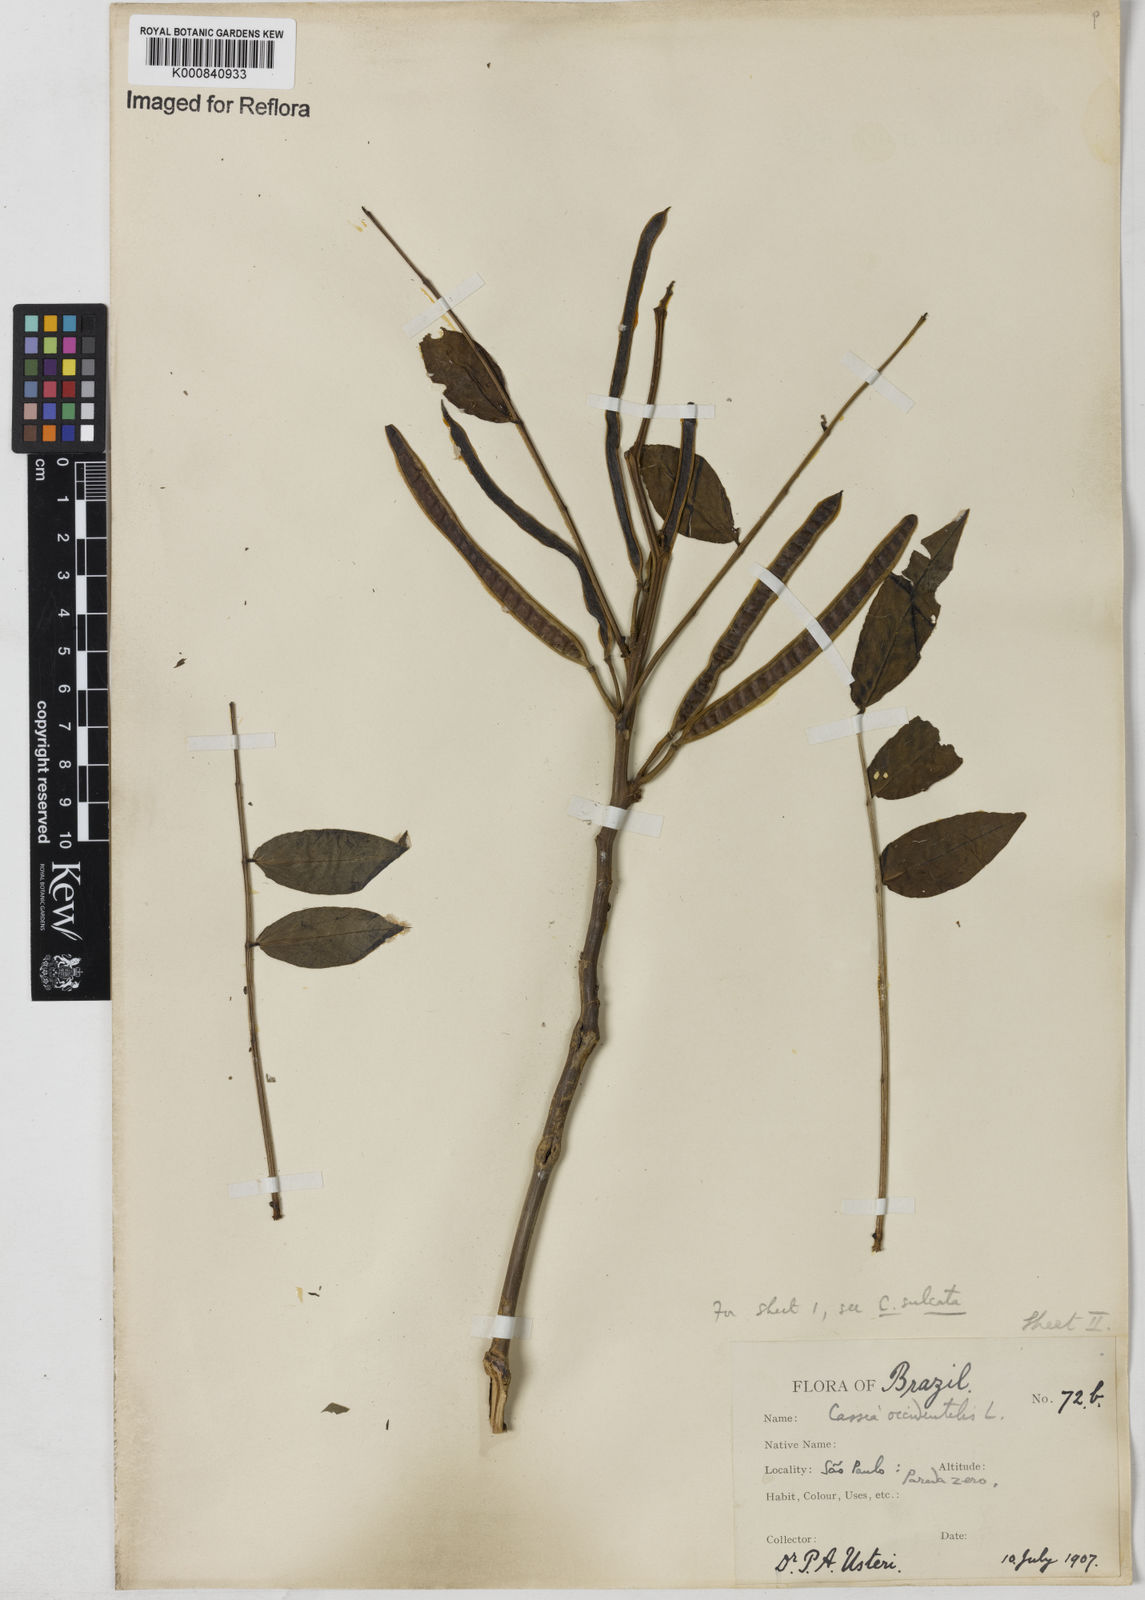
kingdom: Plantae
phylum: Tracheophyta
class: Magnoliopsida
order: Fabales
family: Fabaceae
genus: Senna
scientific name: Senna occidentalis
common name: Septicweed
